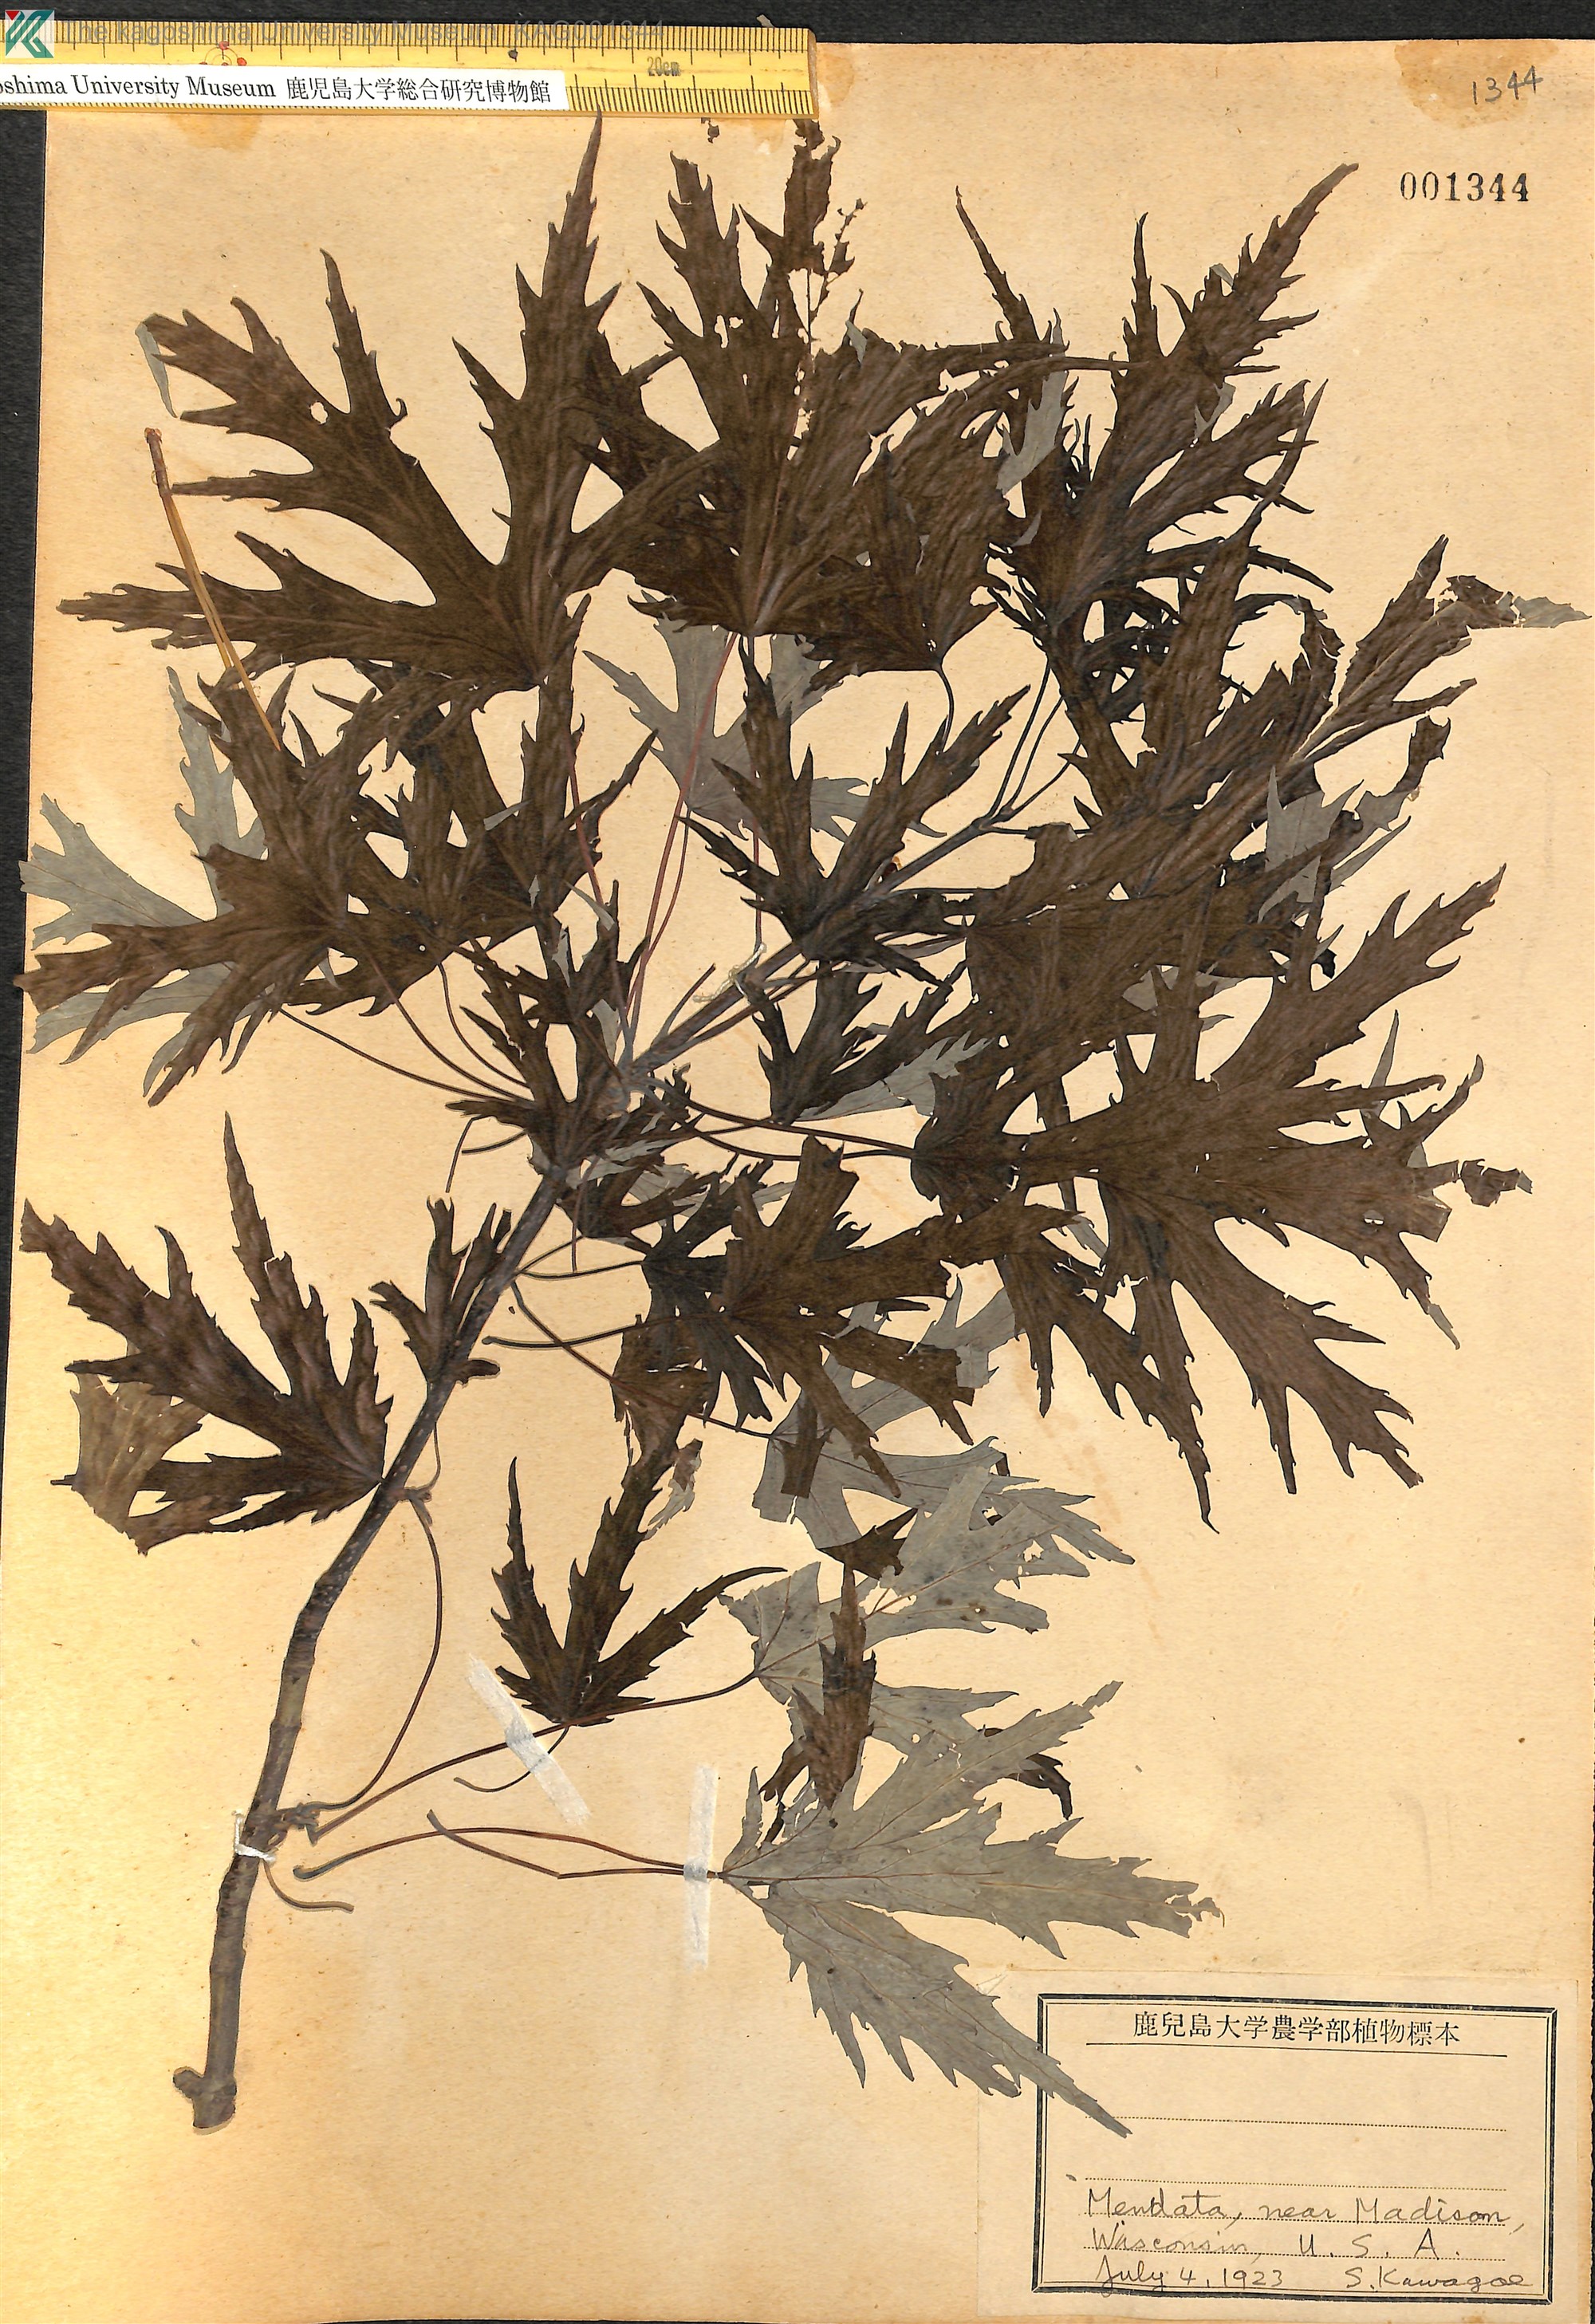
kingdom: Plantae
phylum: Tracheophyta
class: Magnoliopsida
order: Sapindales
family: Sapindaceae
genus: Acer
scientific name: Acer
